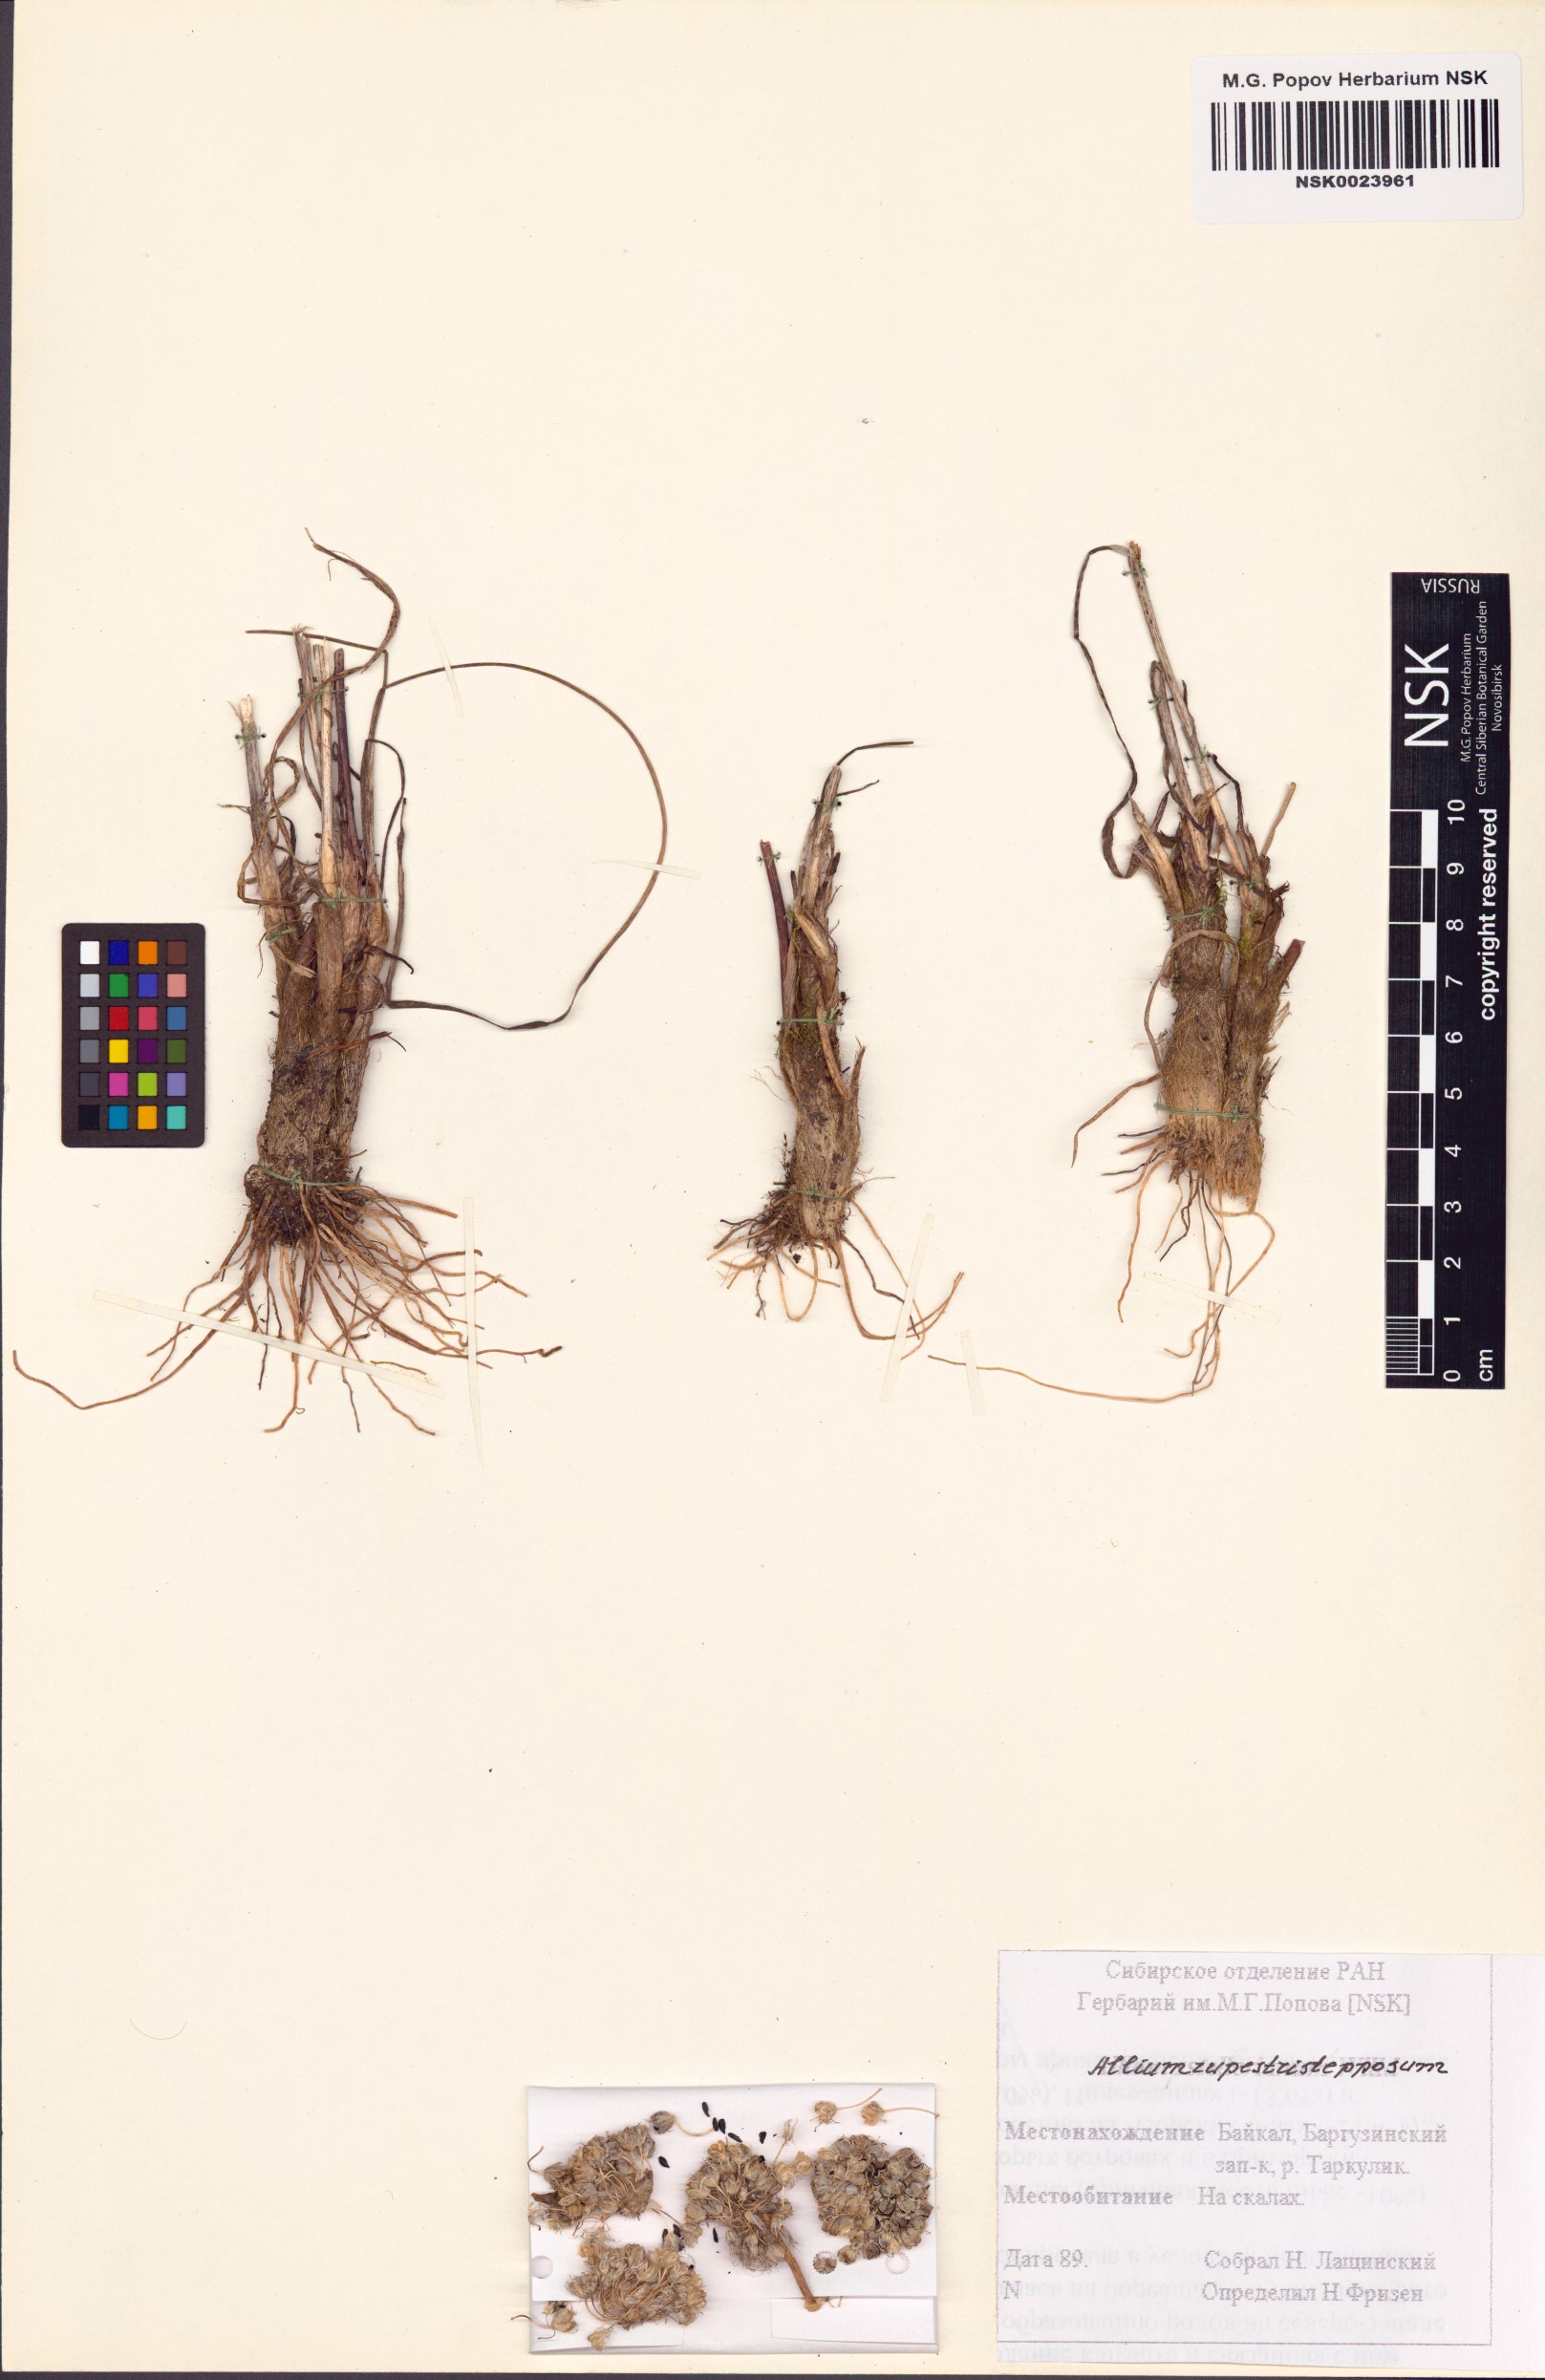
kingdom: Plantae
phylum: Tracheophyta
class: Liliopsida
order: Asparagales
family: Amaryllidaceae
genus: Allium
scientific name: Allium rupestristepposum
